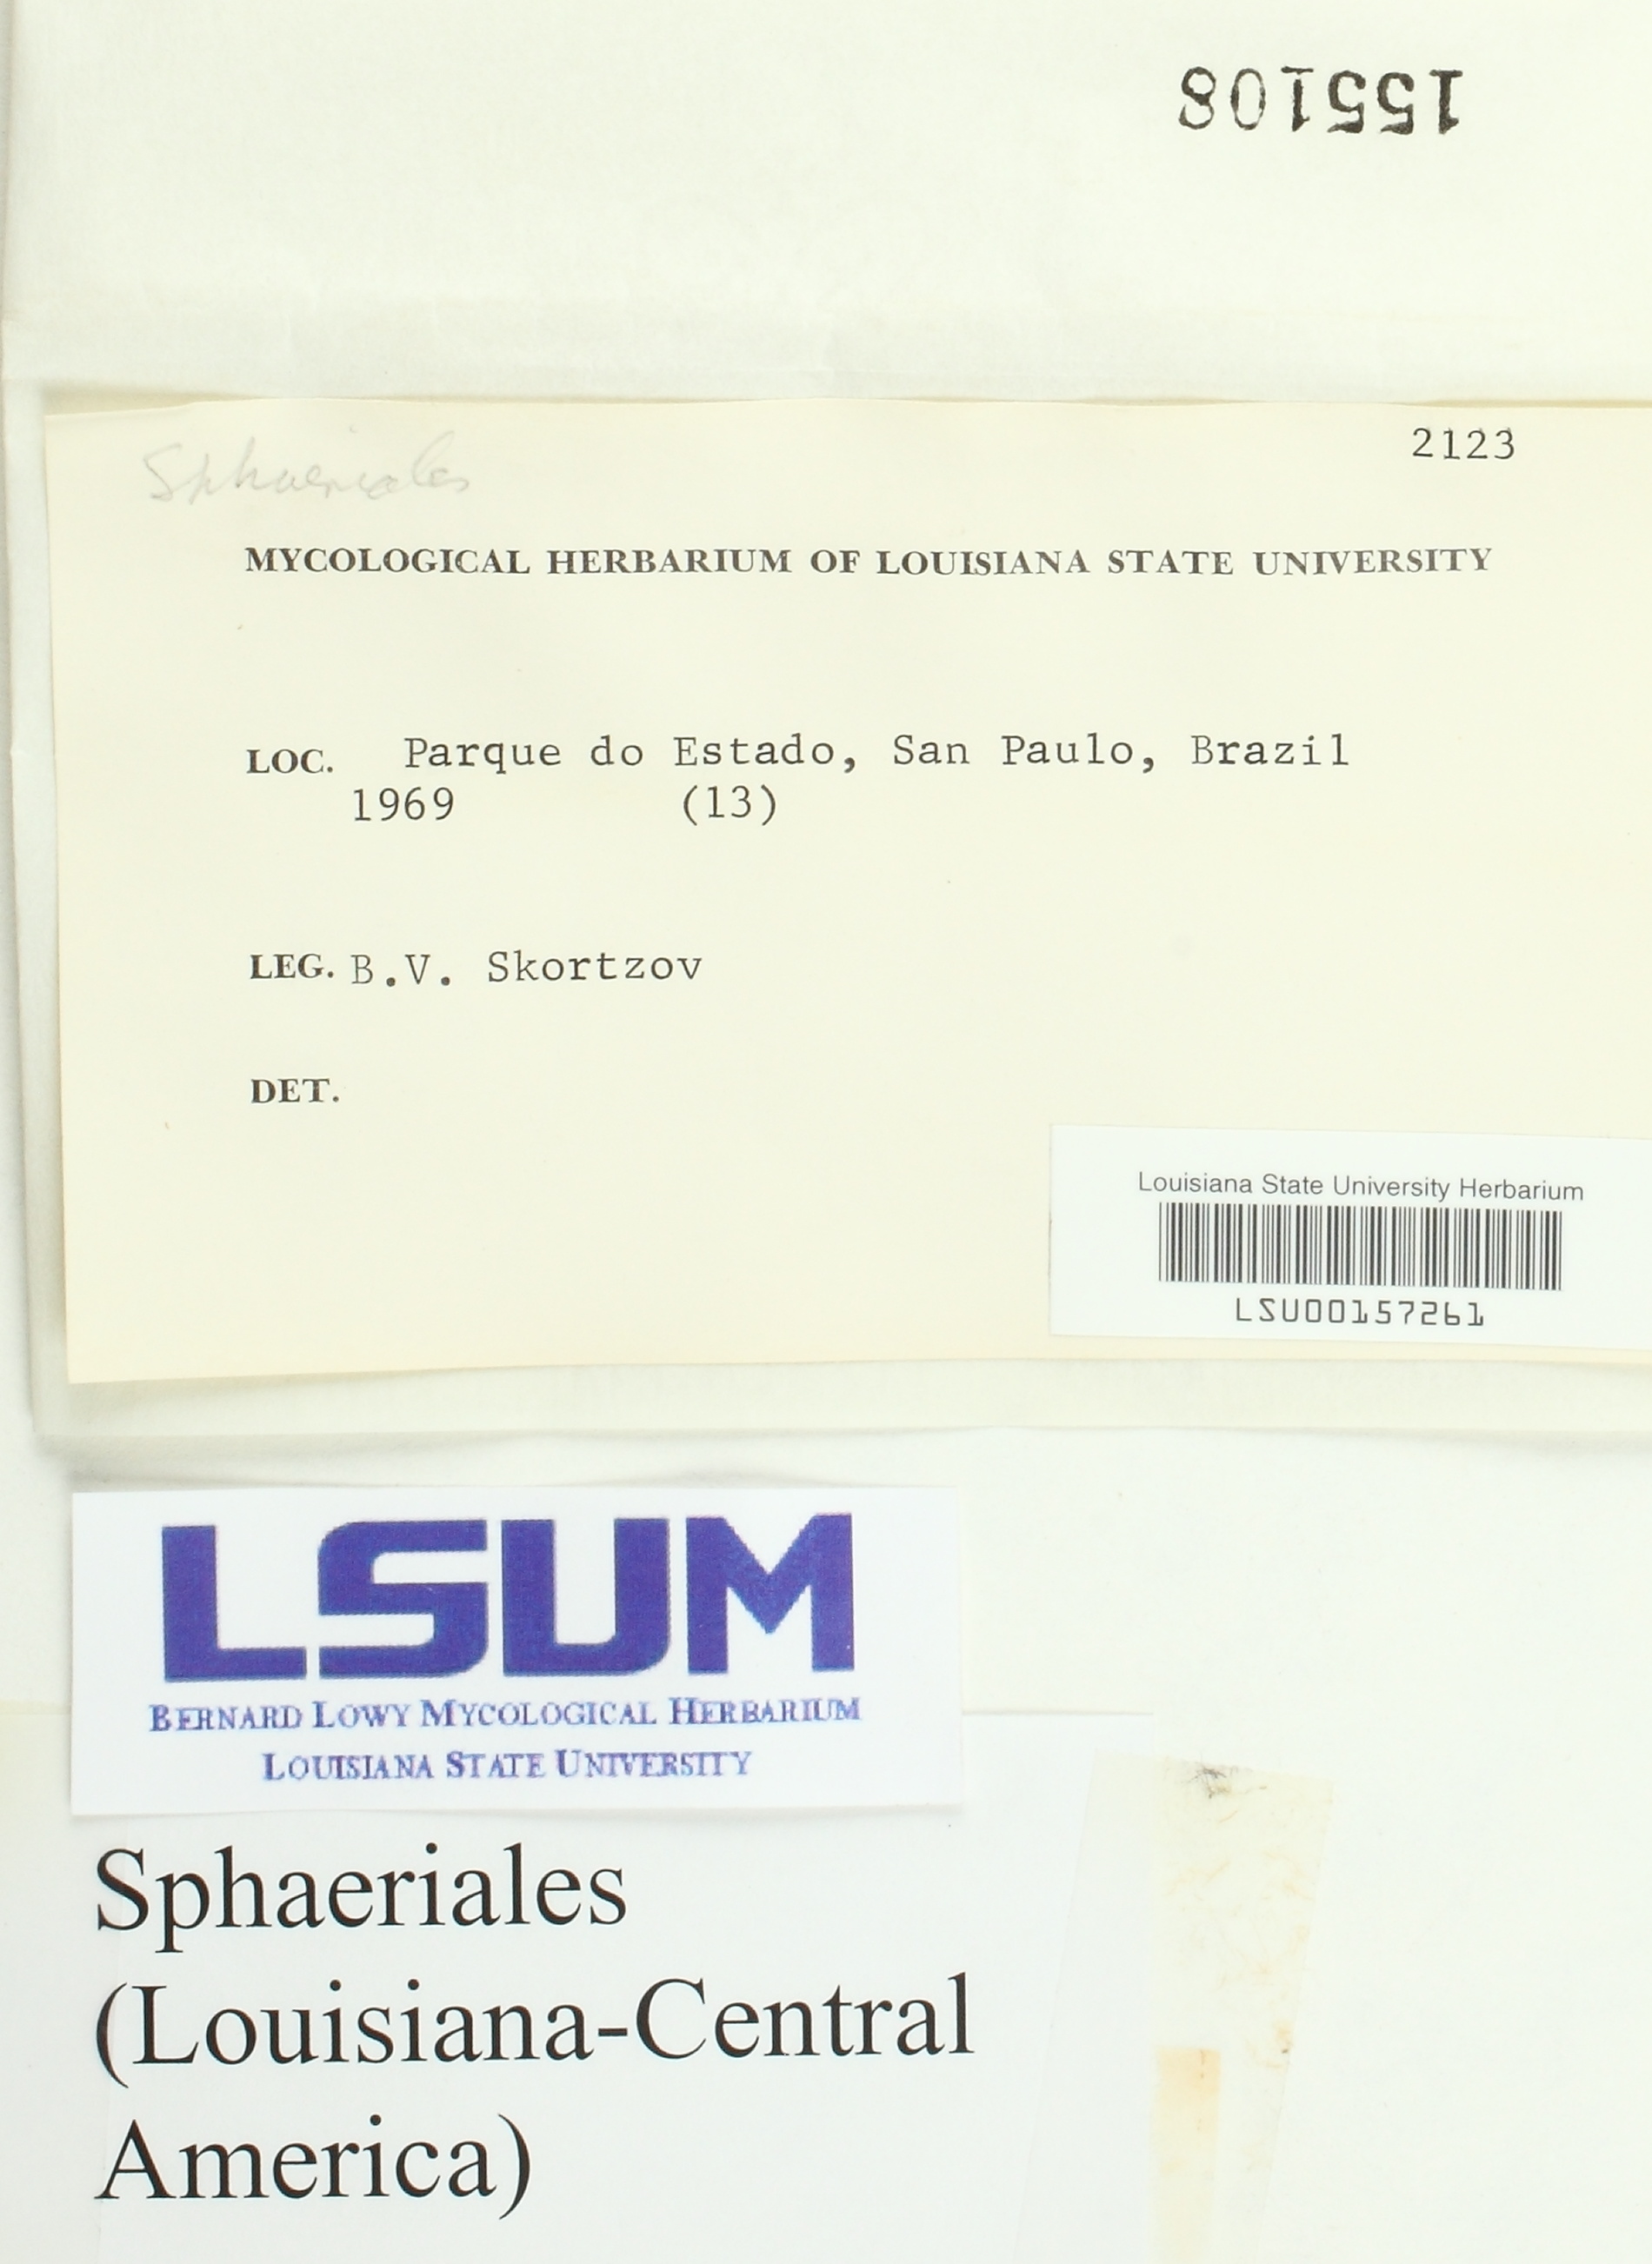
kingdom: Fungi
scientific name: Fungi
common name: Fungi
